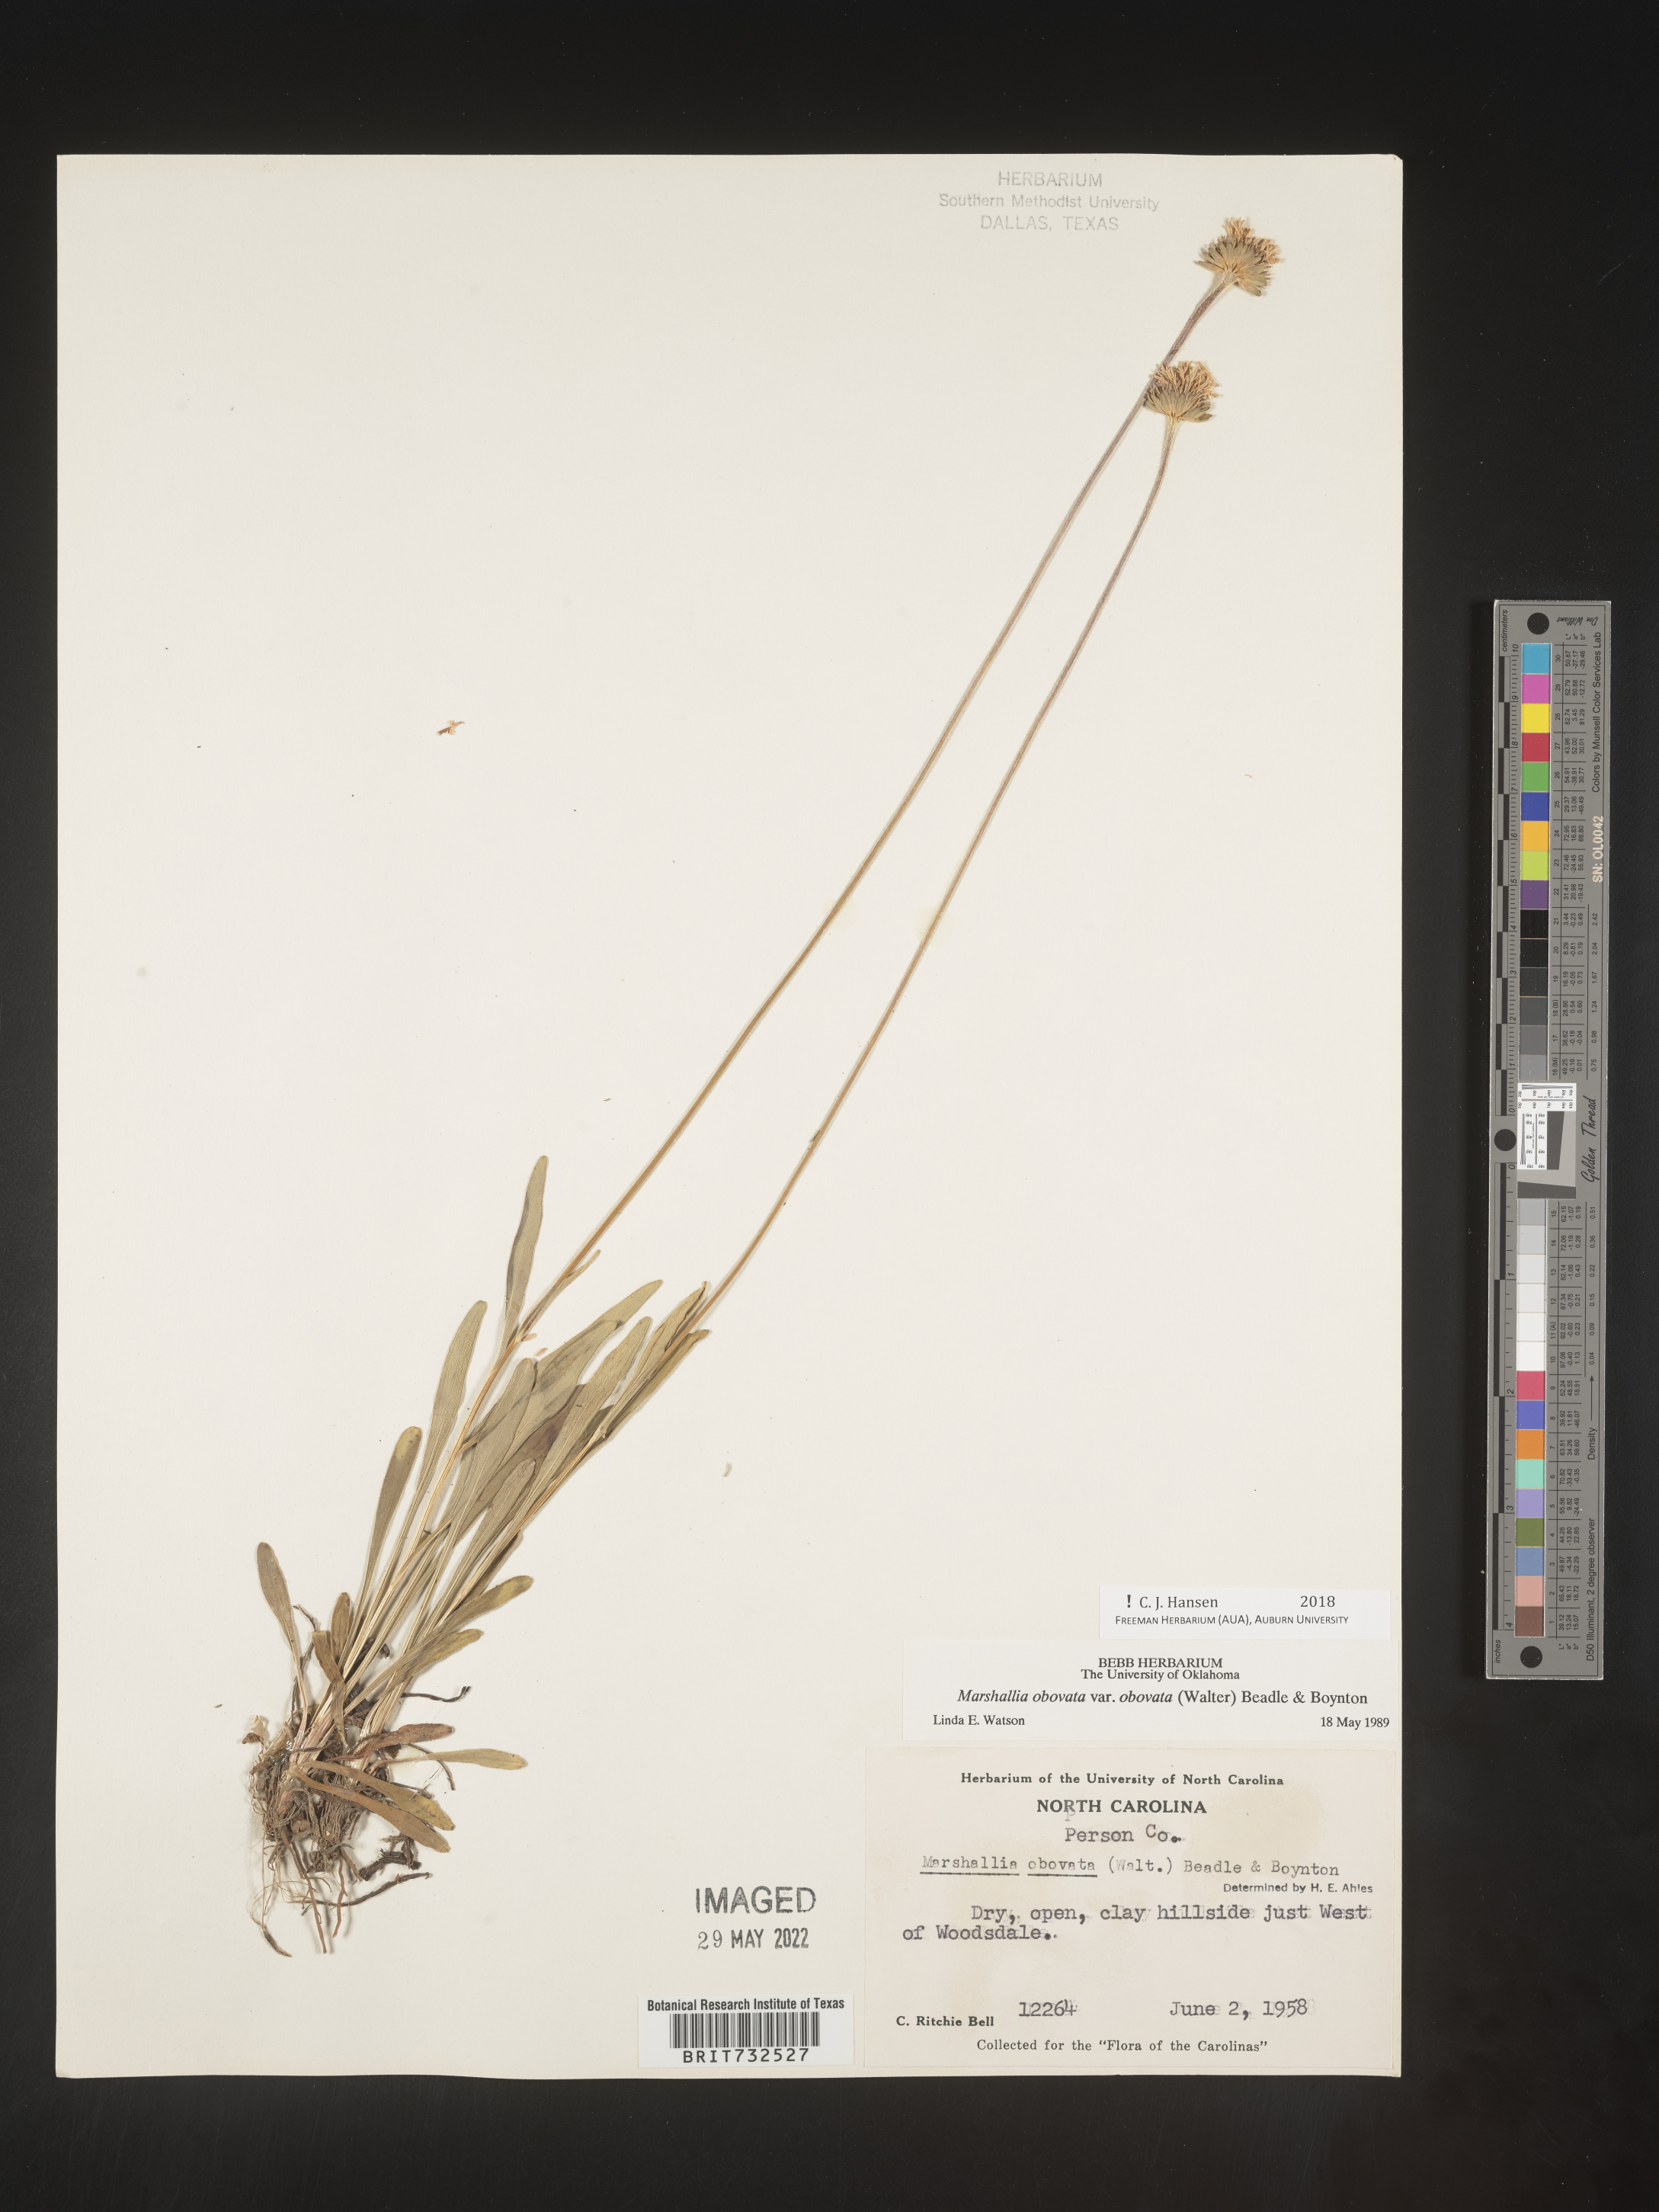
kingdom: Plantae
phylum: Tracheophyta
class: Magnoliopsida
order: Asterales
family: Asteraceae
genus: Marshallia
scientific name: Marshallia obovata
